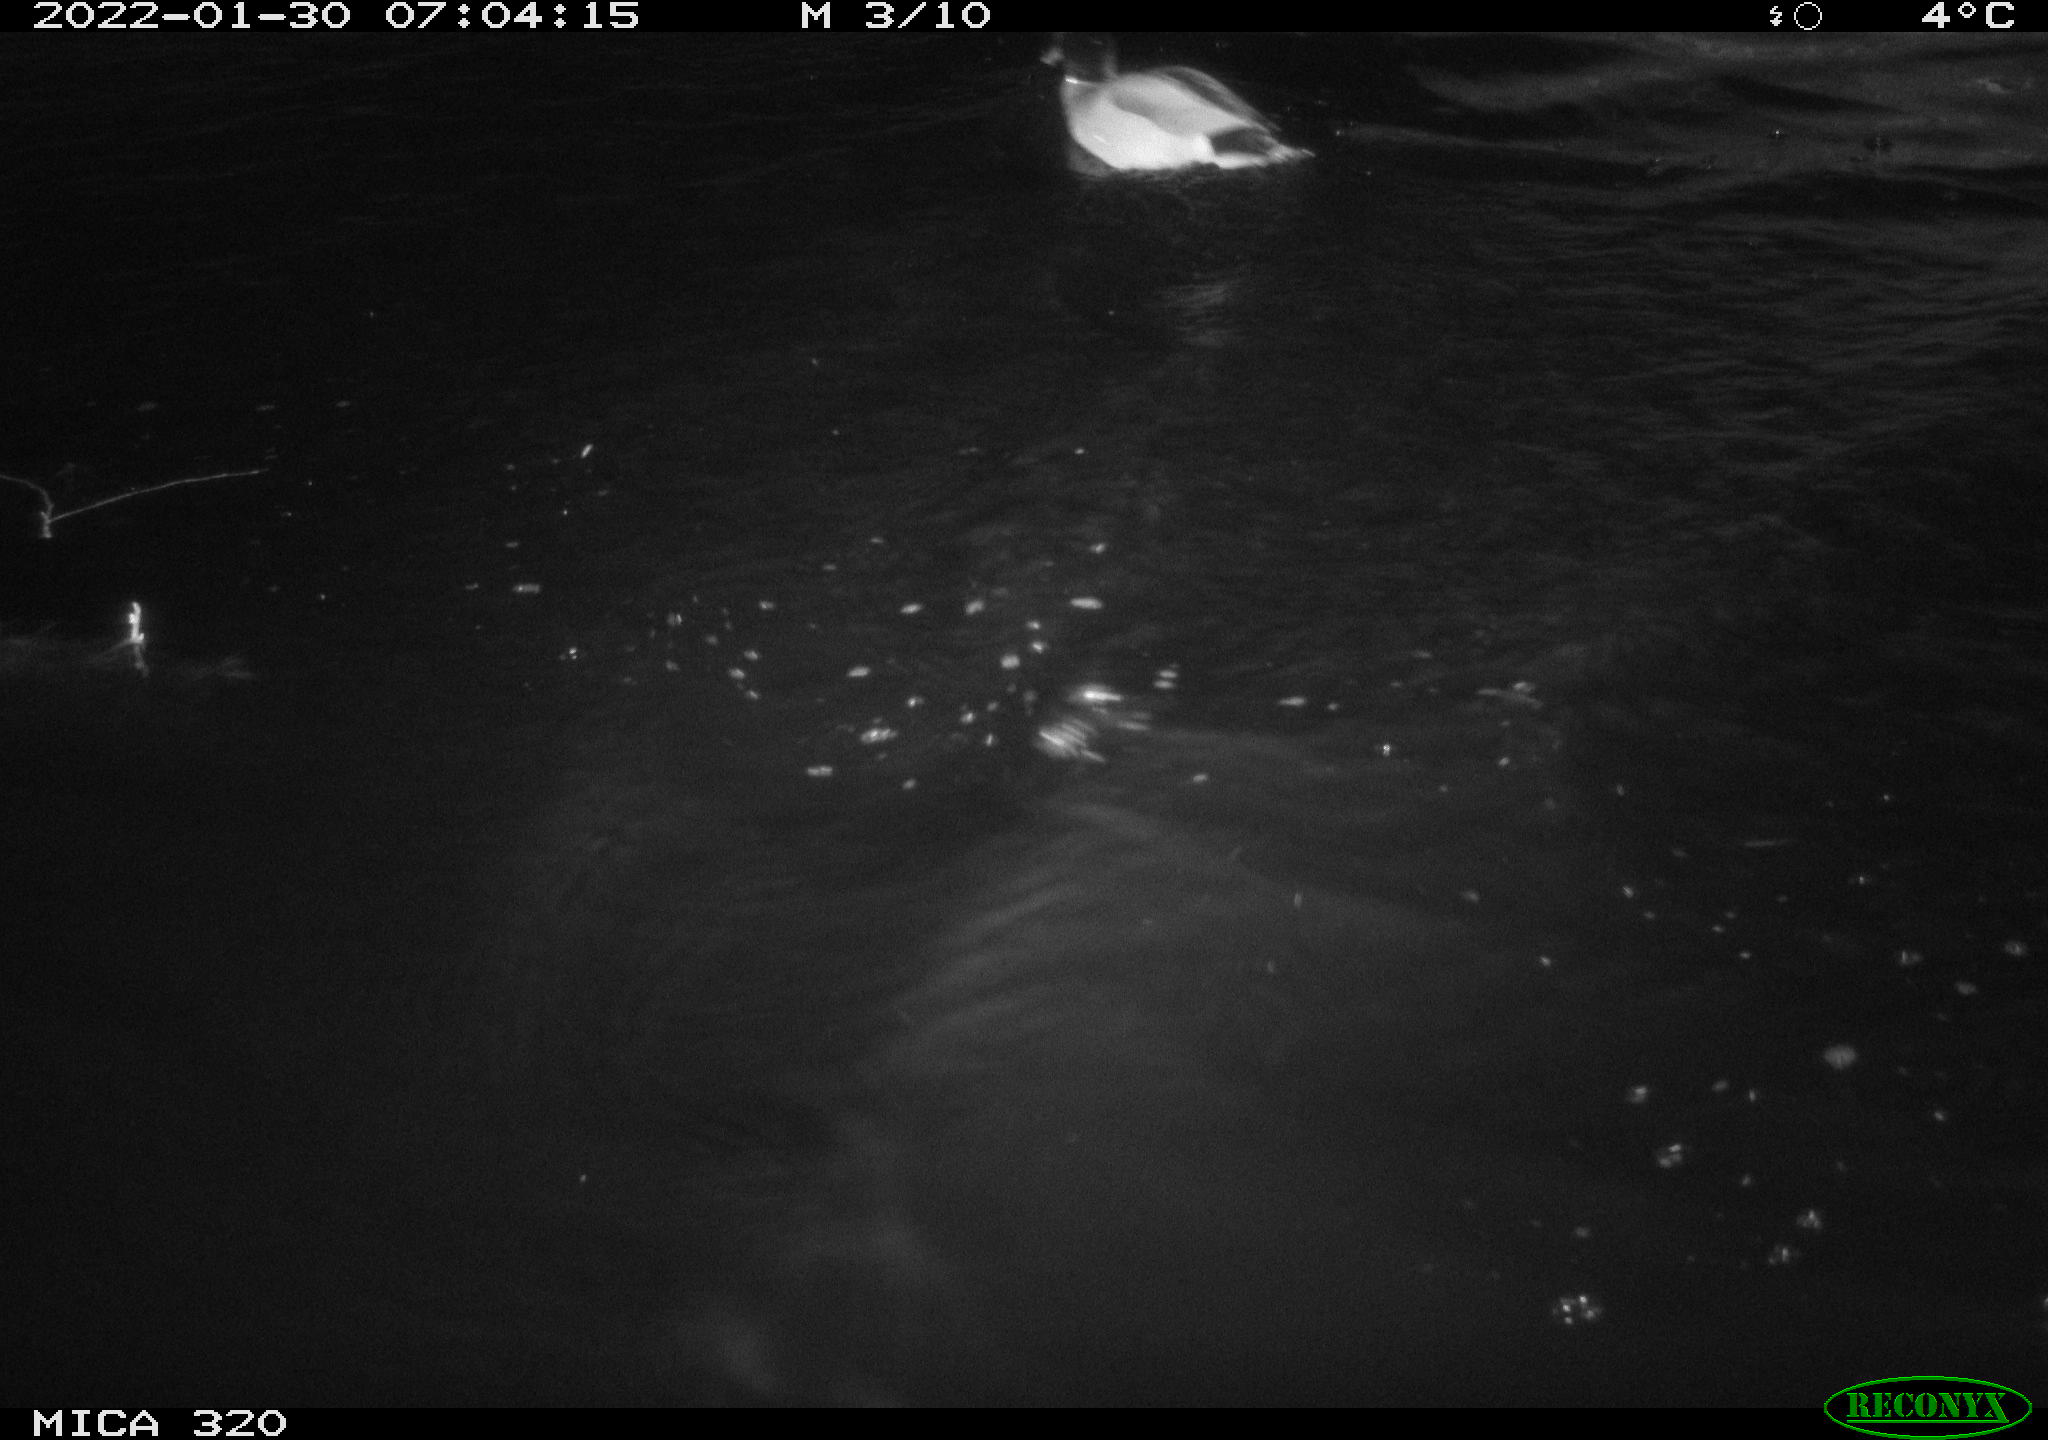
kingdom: Animalia
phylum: Chordata
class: Aves
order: Anseriformes
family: Anatidae
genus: Anas
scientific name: Anas
